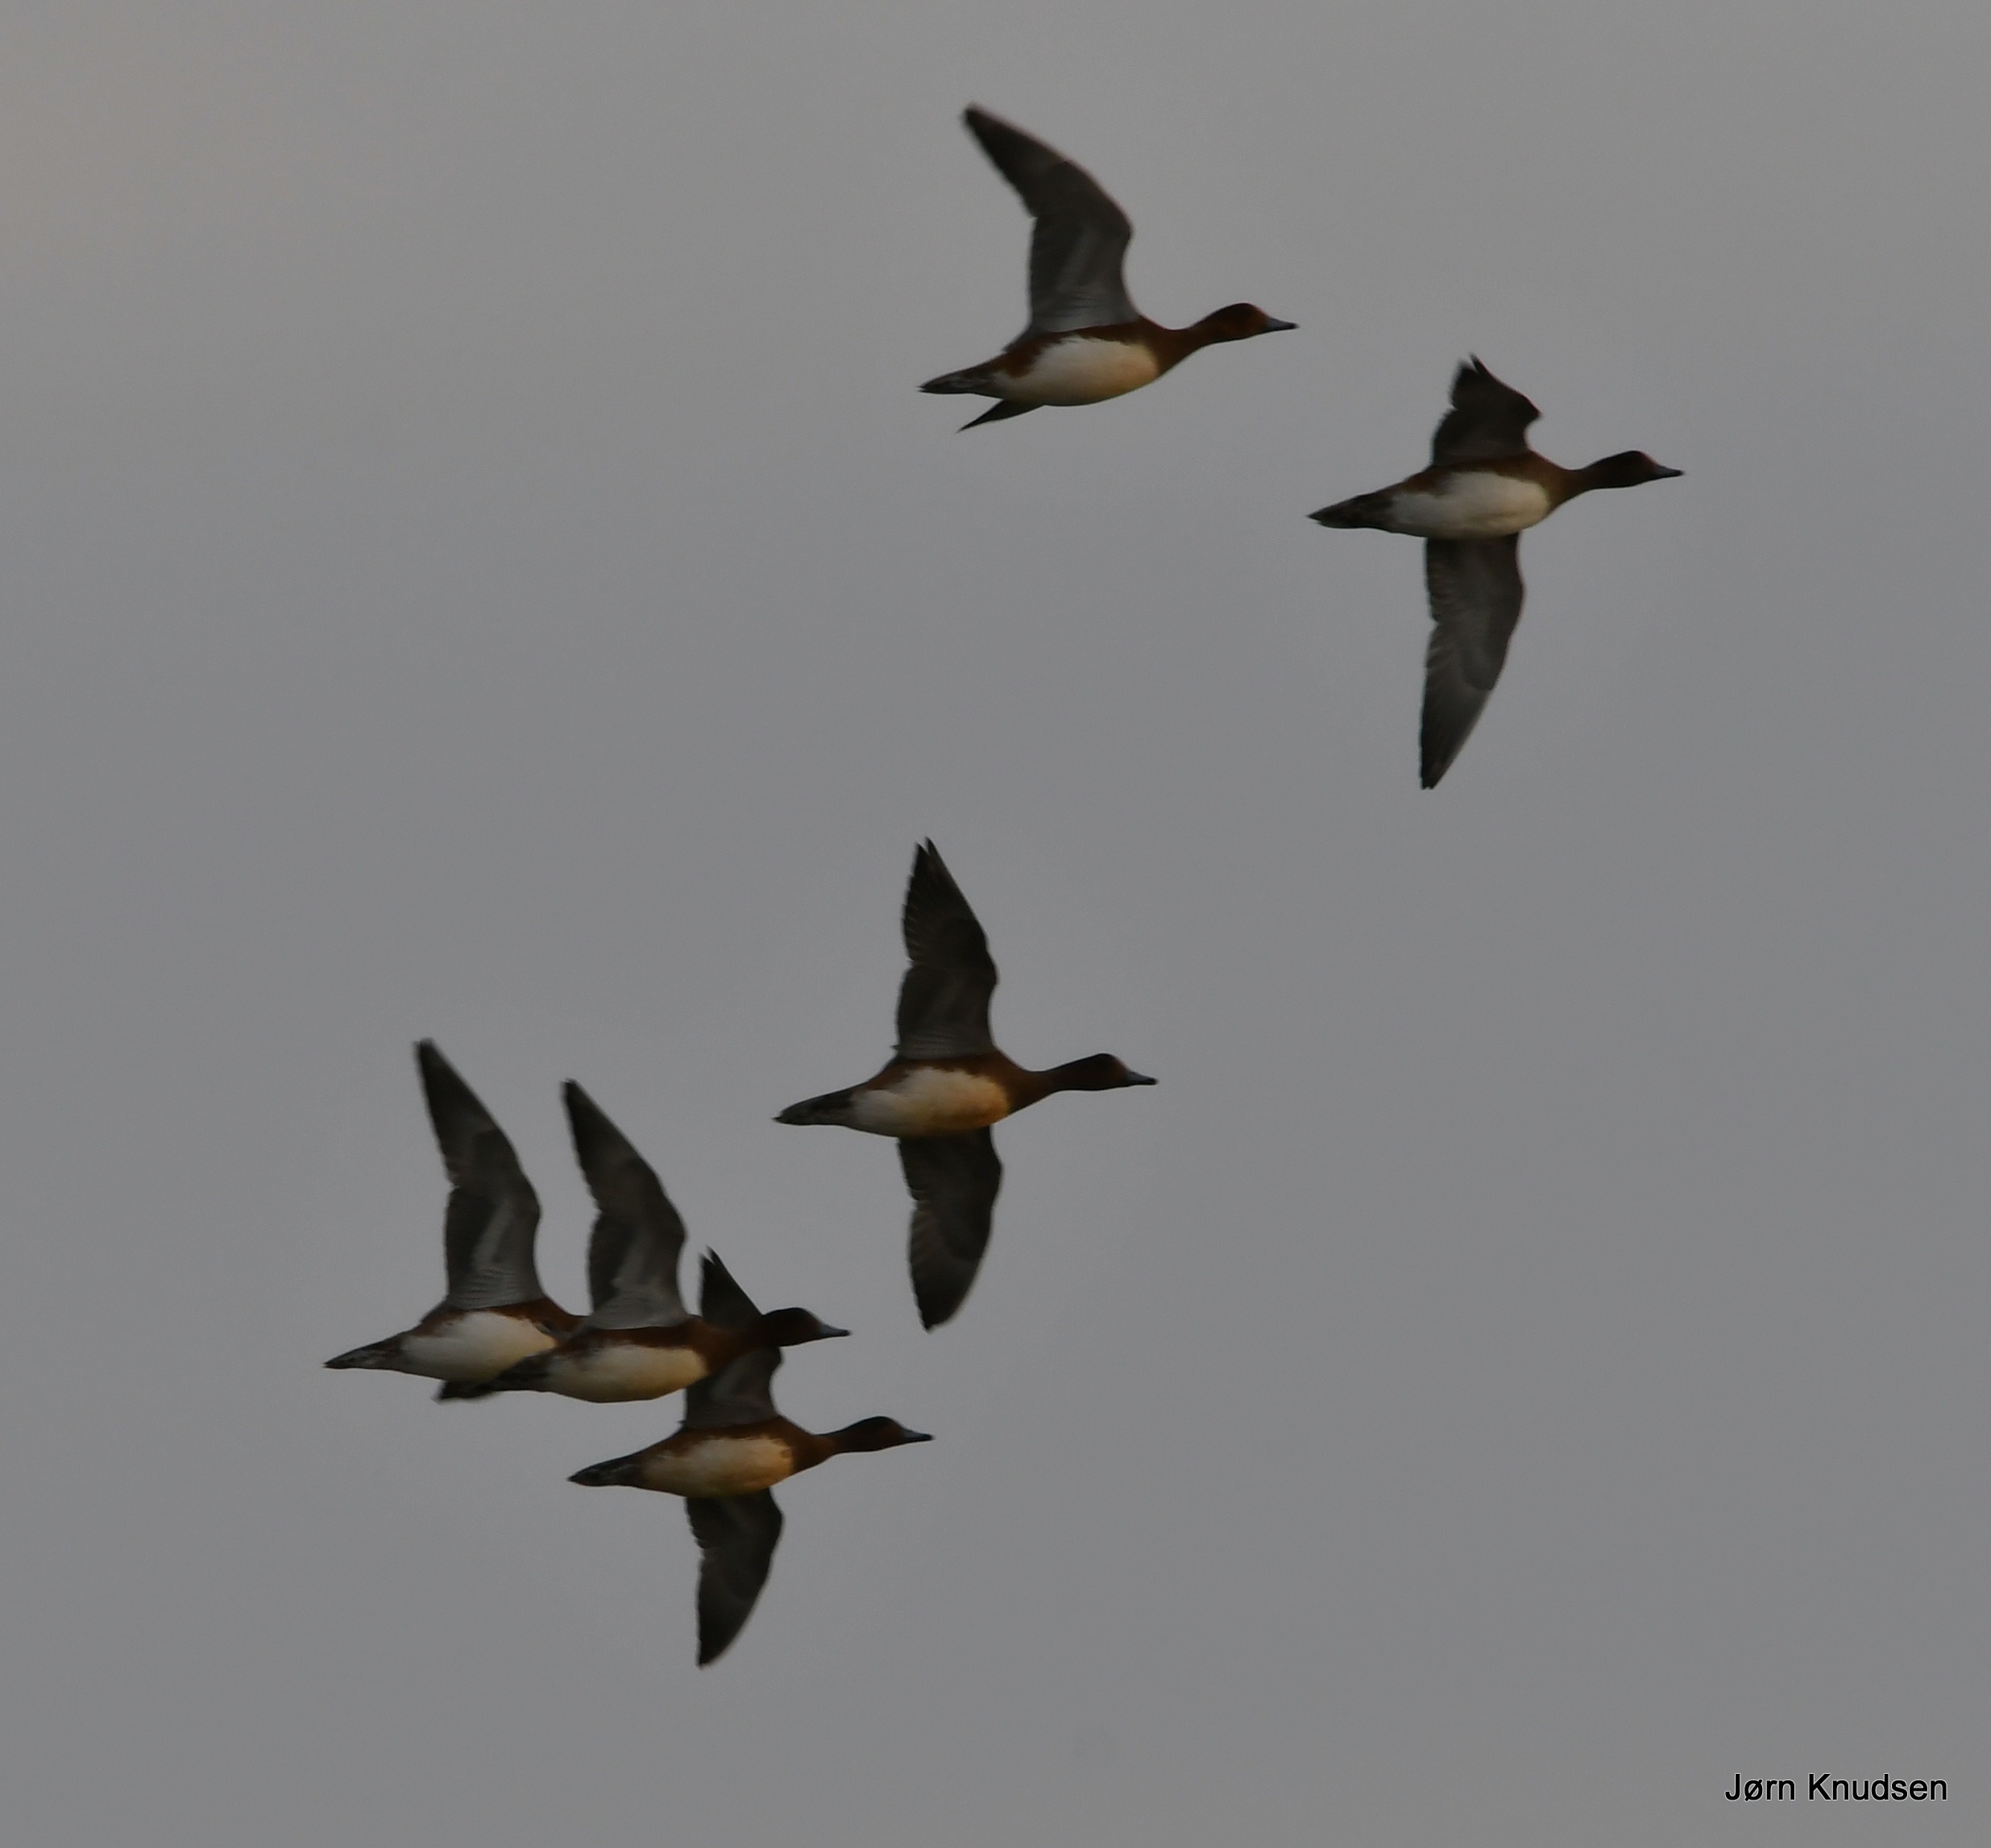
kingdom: Animalia
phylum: Chordata
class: Aves
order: Anseriformes
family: Anatidae
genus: Mareca
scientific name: Mareca penelope
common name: Pibeand
